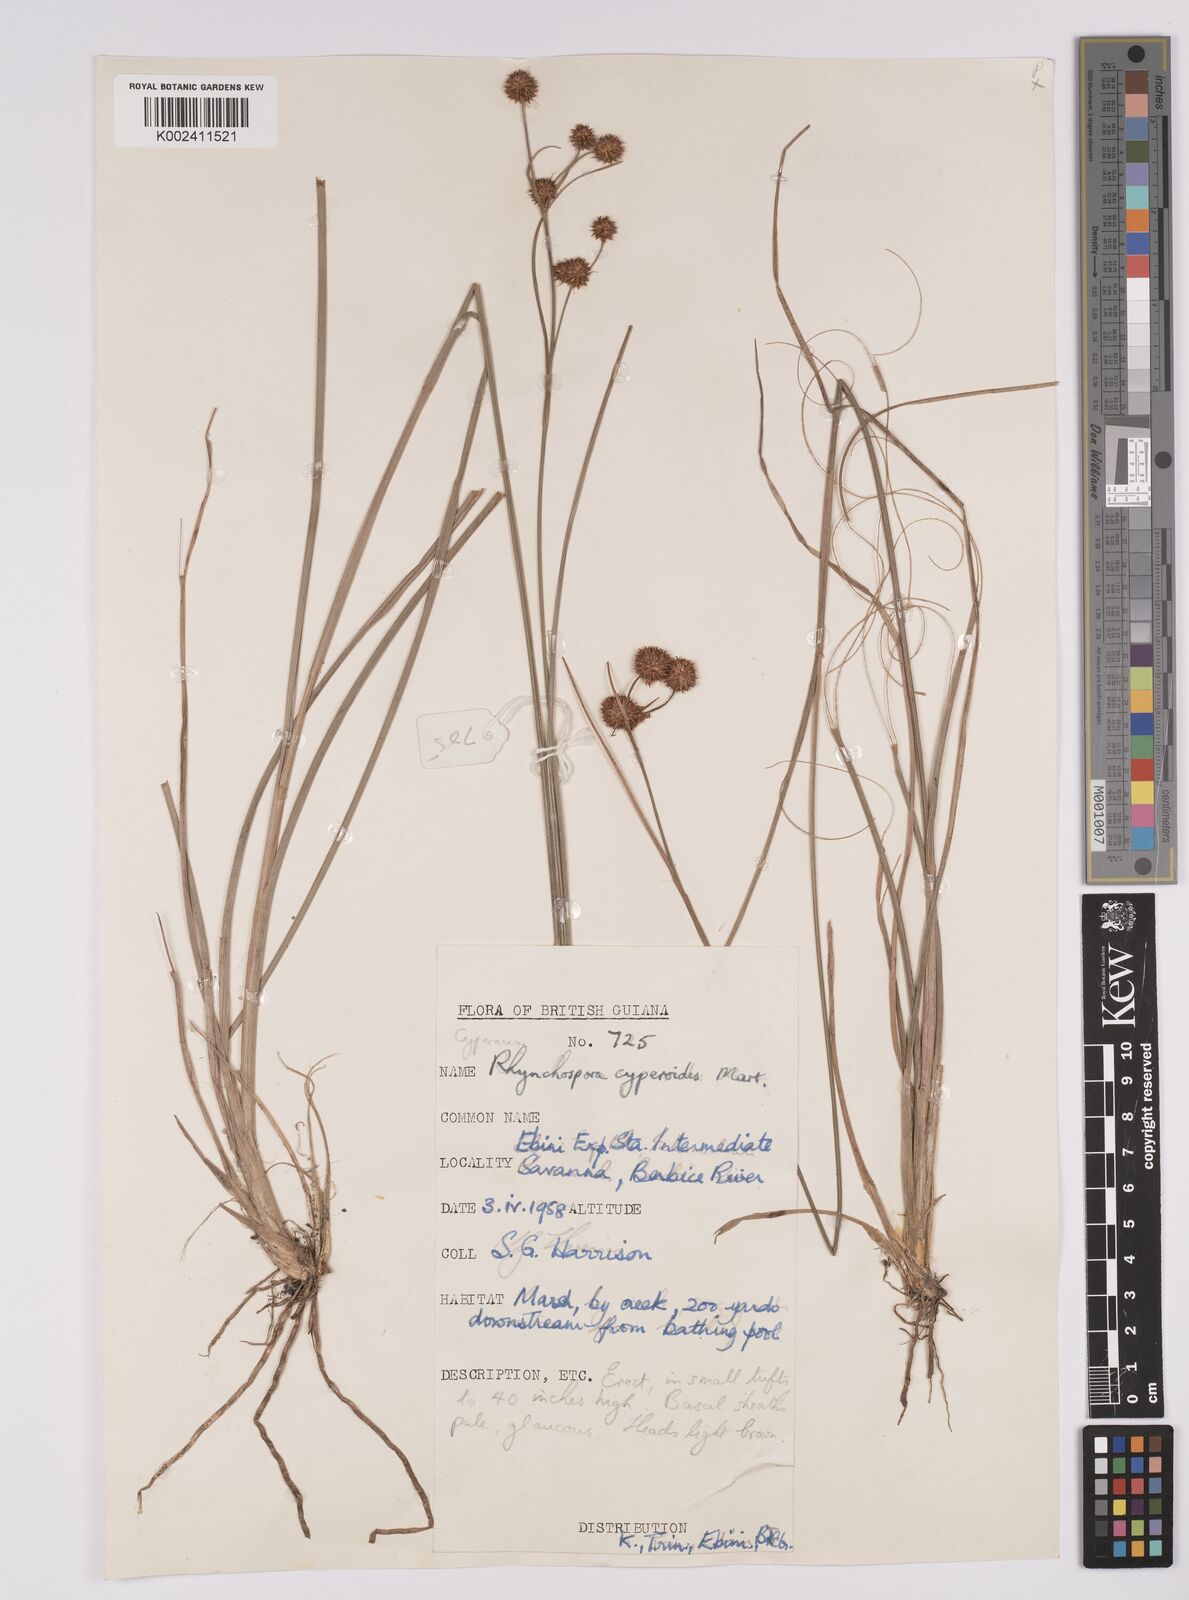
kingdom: Plantae
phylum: Tracheophyta
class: Liliopsida
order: Poales
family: Cyperaceae
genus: Rhynchospora
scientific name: Rhynchospora holoschoenoides
